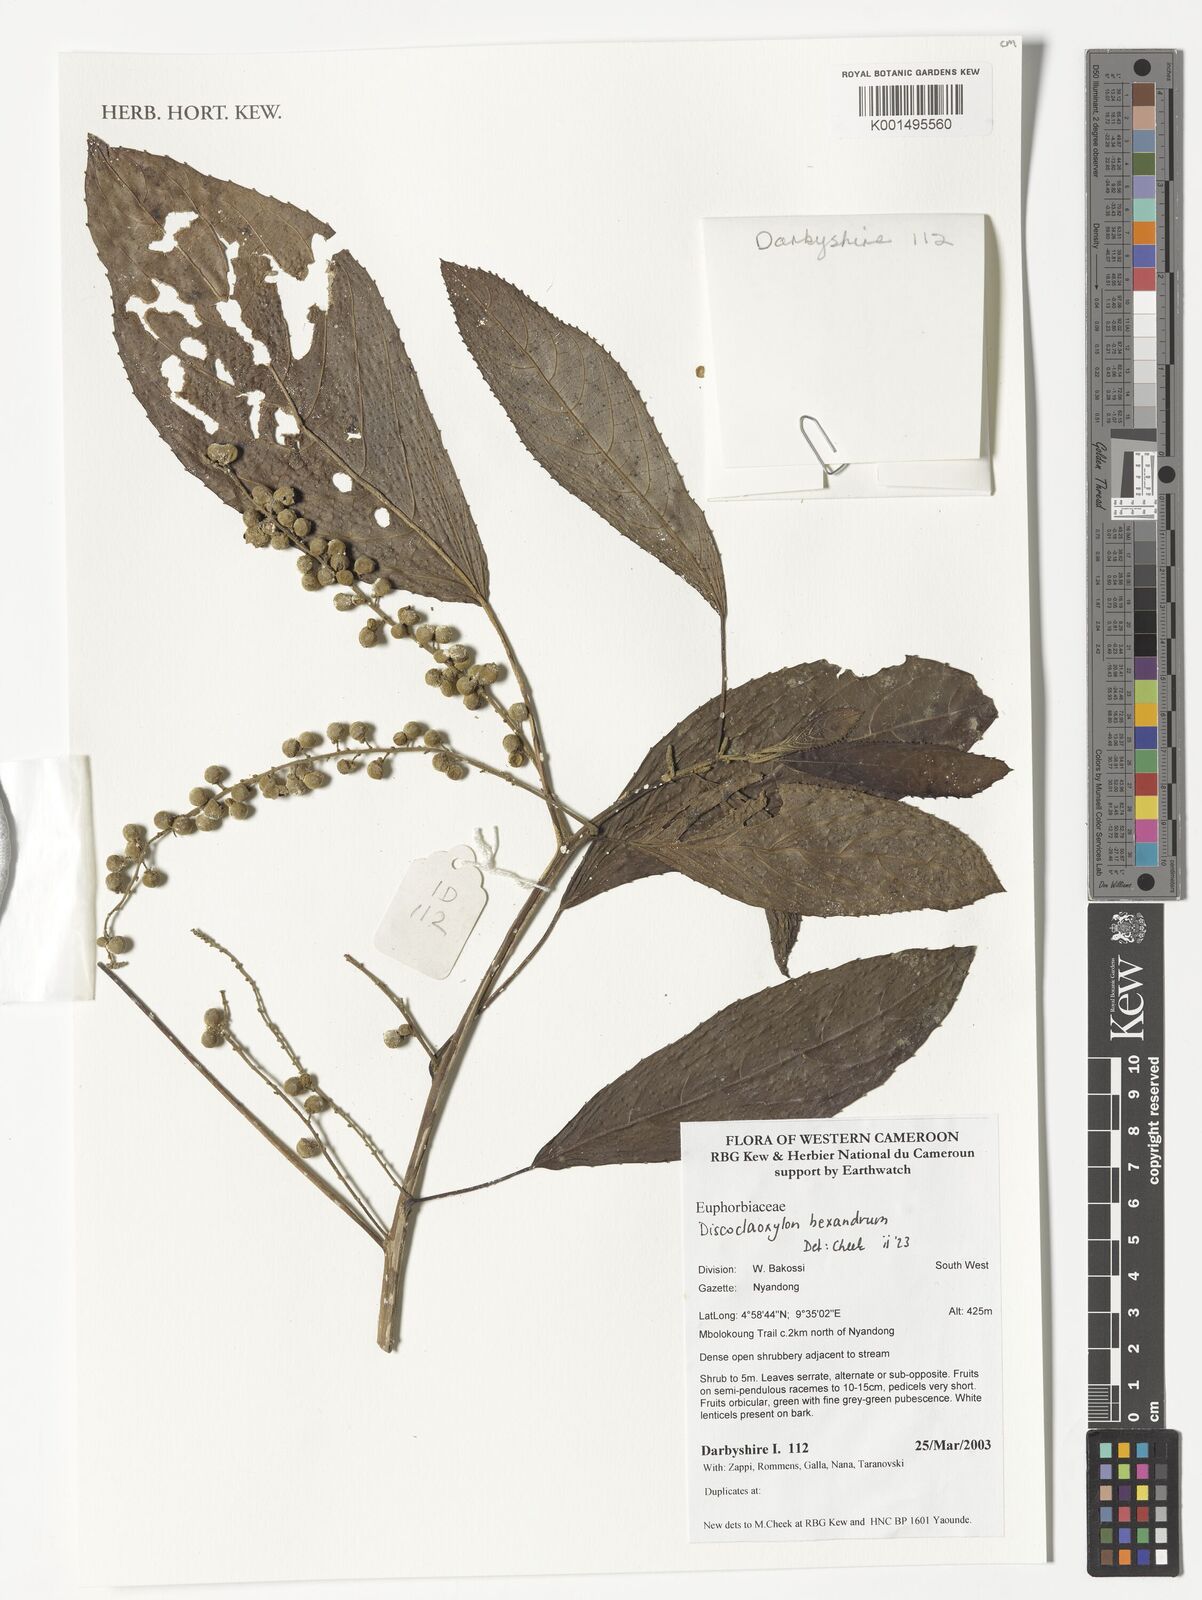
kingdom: Plantae
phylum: Tracheophyta
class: Magnoliopsida
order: Malpighiales
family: Euphorbiaceae
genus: Discoclaoxylon
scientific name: Discoclaoxylon hexandrum
